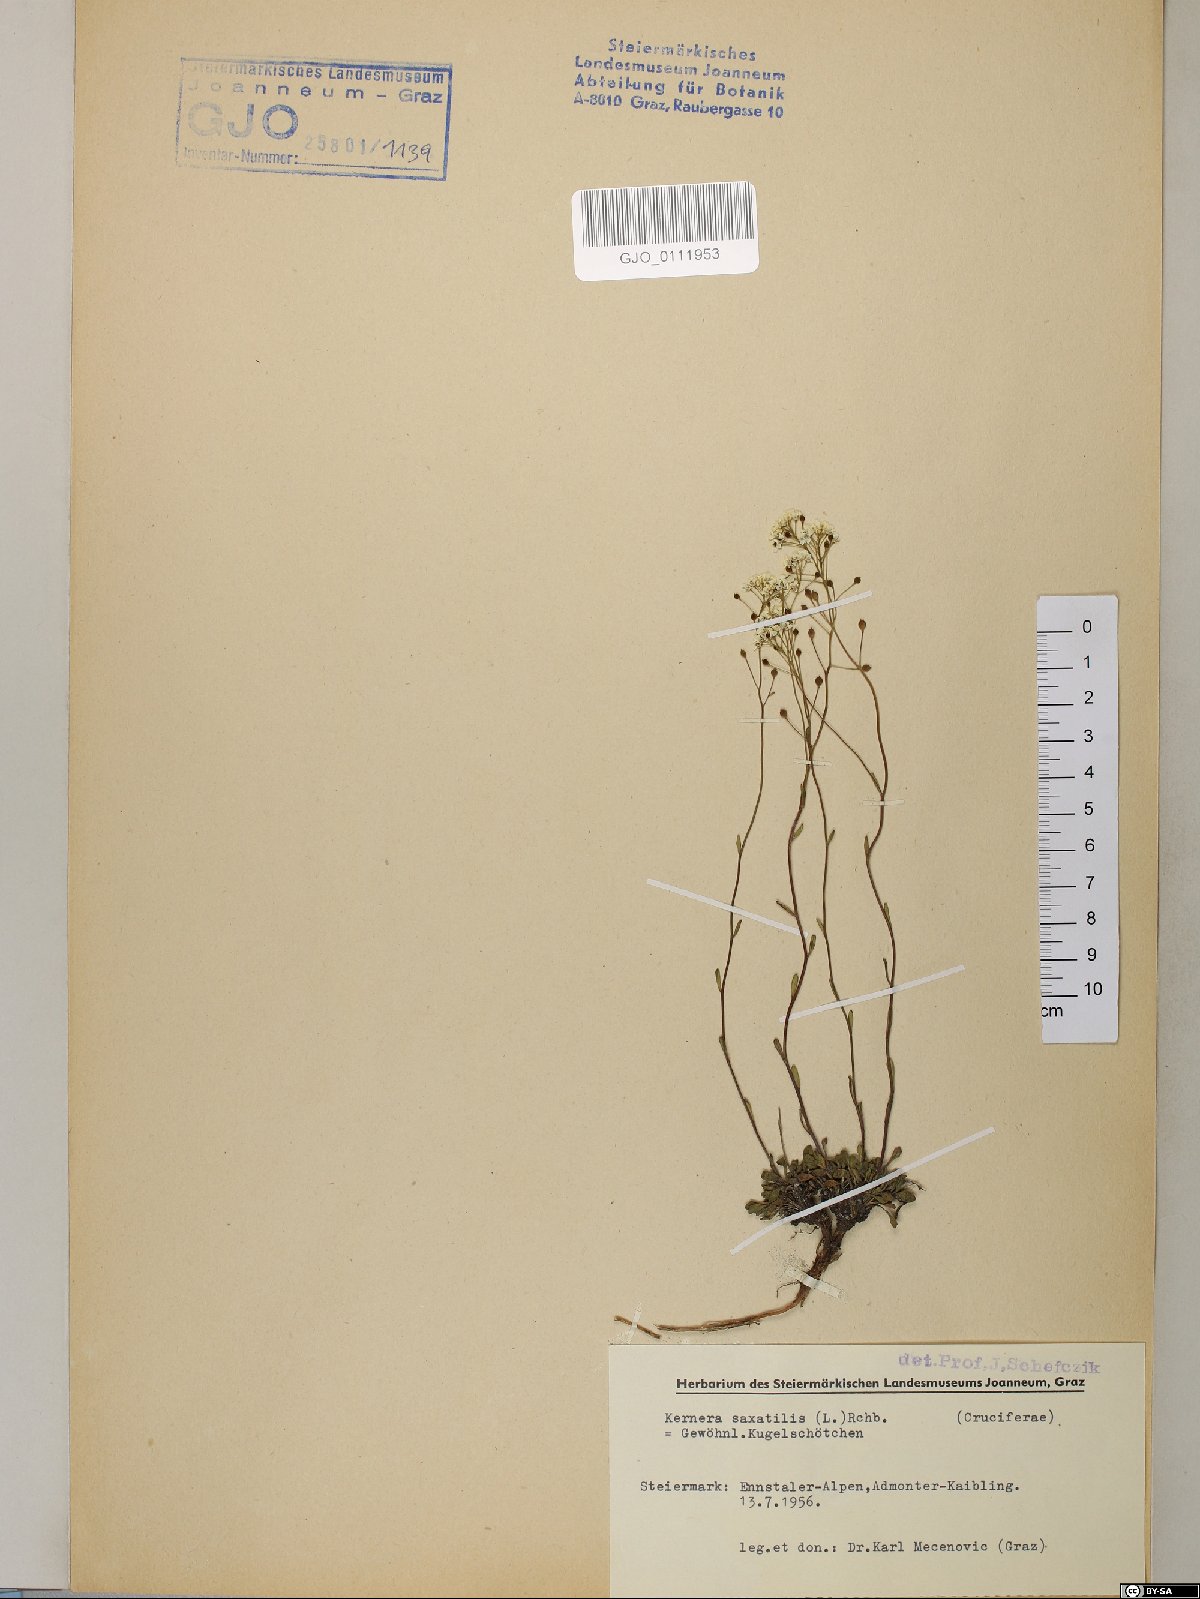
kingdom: Plantae
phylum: Tracheophyta
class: Magnoliopsida
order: Brassicales
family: Brassicaceae
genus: Kernera
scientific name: Kernera saxatilis
